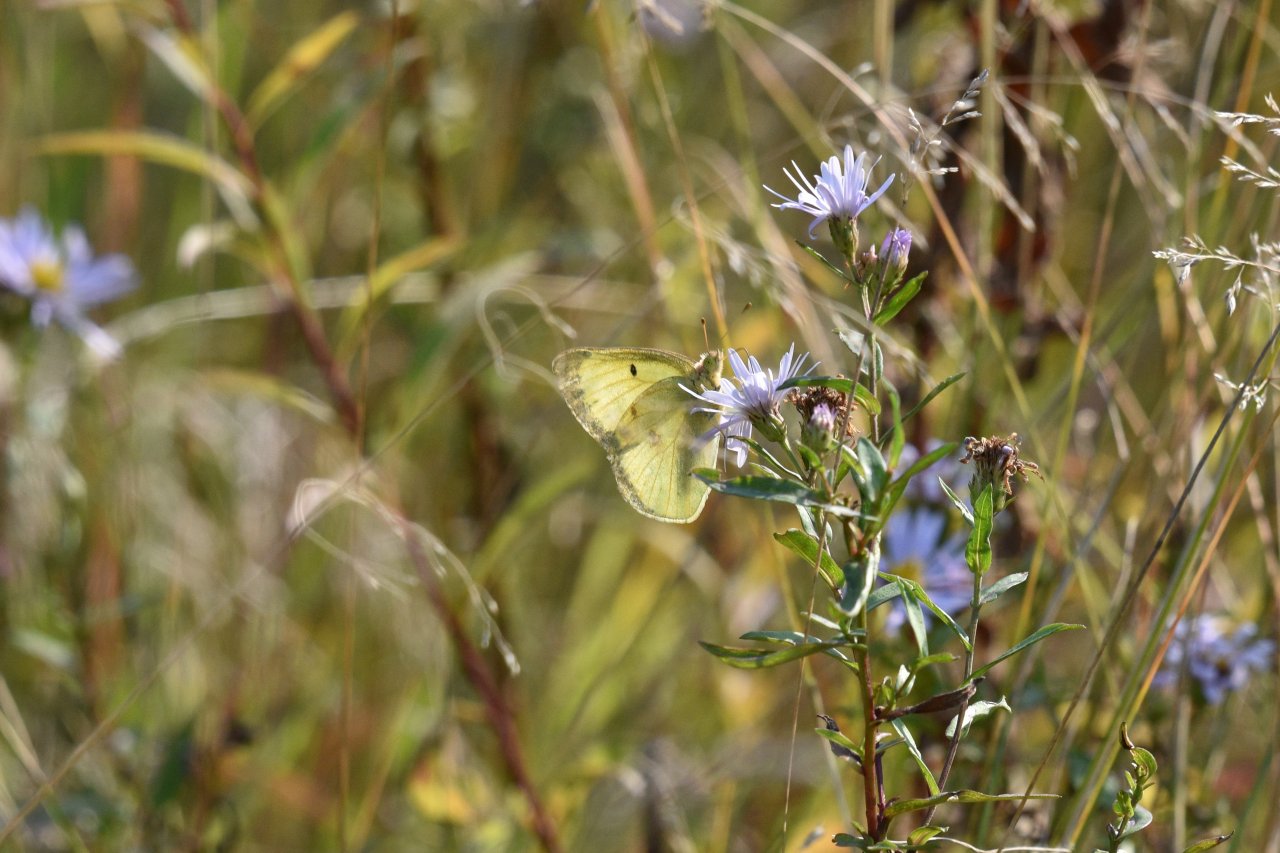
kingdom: Animalia
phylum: Arthropoda
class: Insecta
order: Lepidoptera
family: Pieridae
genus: Colias
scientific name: Colias philodice
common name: Clouded Sulphur
